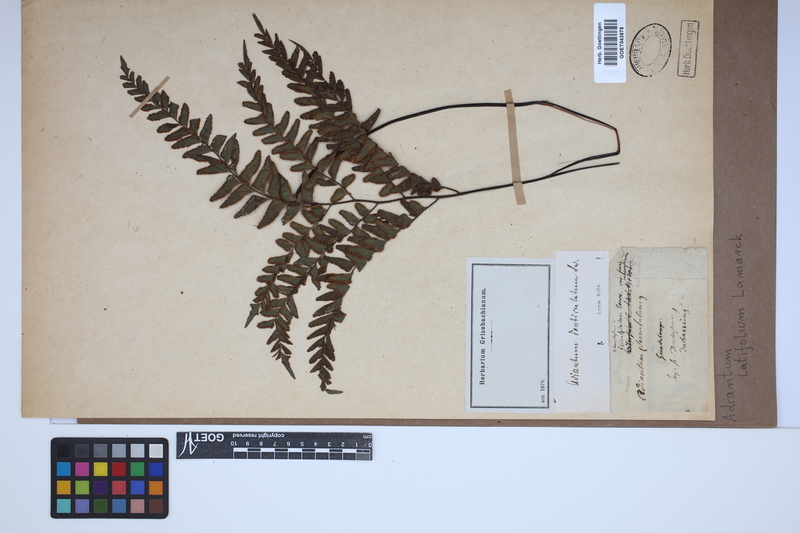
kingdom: Plantae
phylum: Tracheophyta
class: Polypodiopsida
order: Polypodiales
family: Pteridaceae
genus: Adiantum
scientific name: Adiantum latifolium
